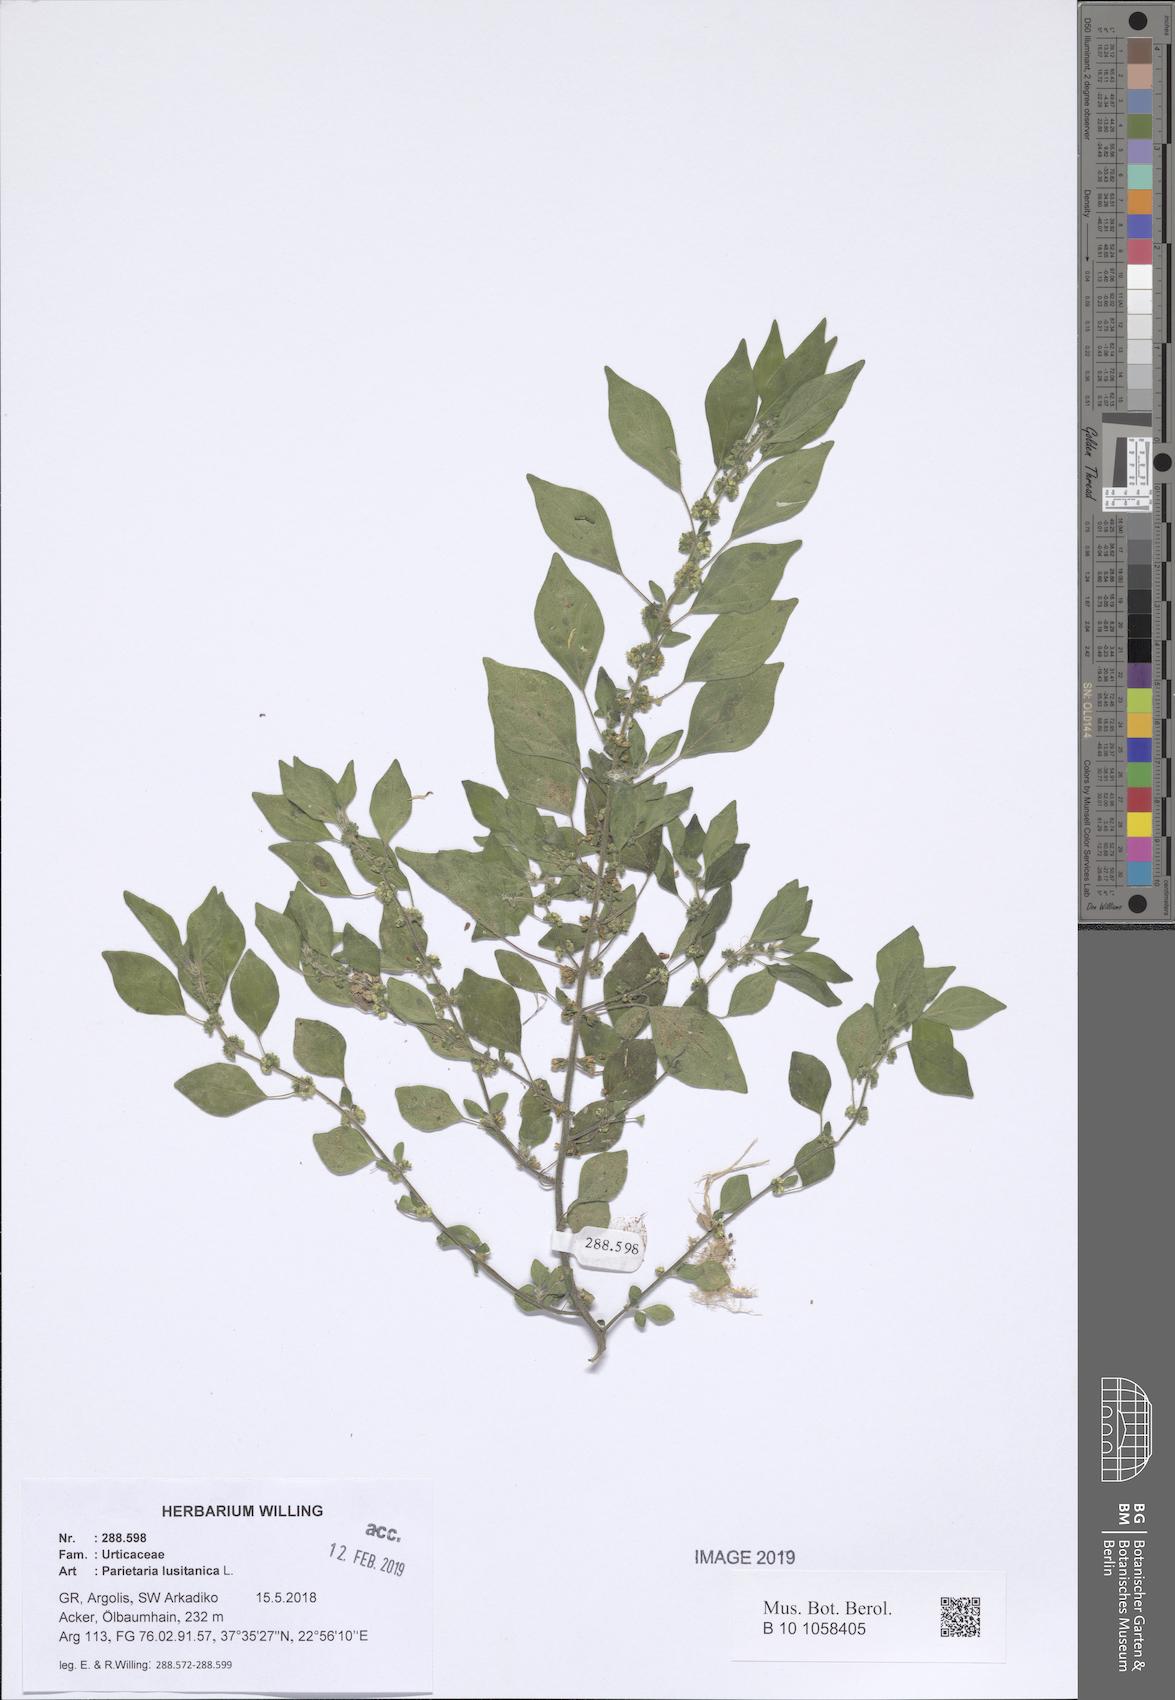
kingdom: Plantae
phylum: Tracheophyta
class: Magnoliopsida
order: Rosales
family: Urticaceae
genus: Parietaria
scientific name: Parietaria lusitanica
